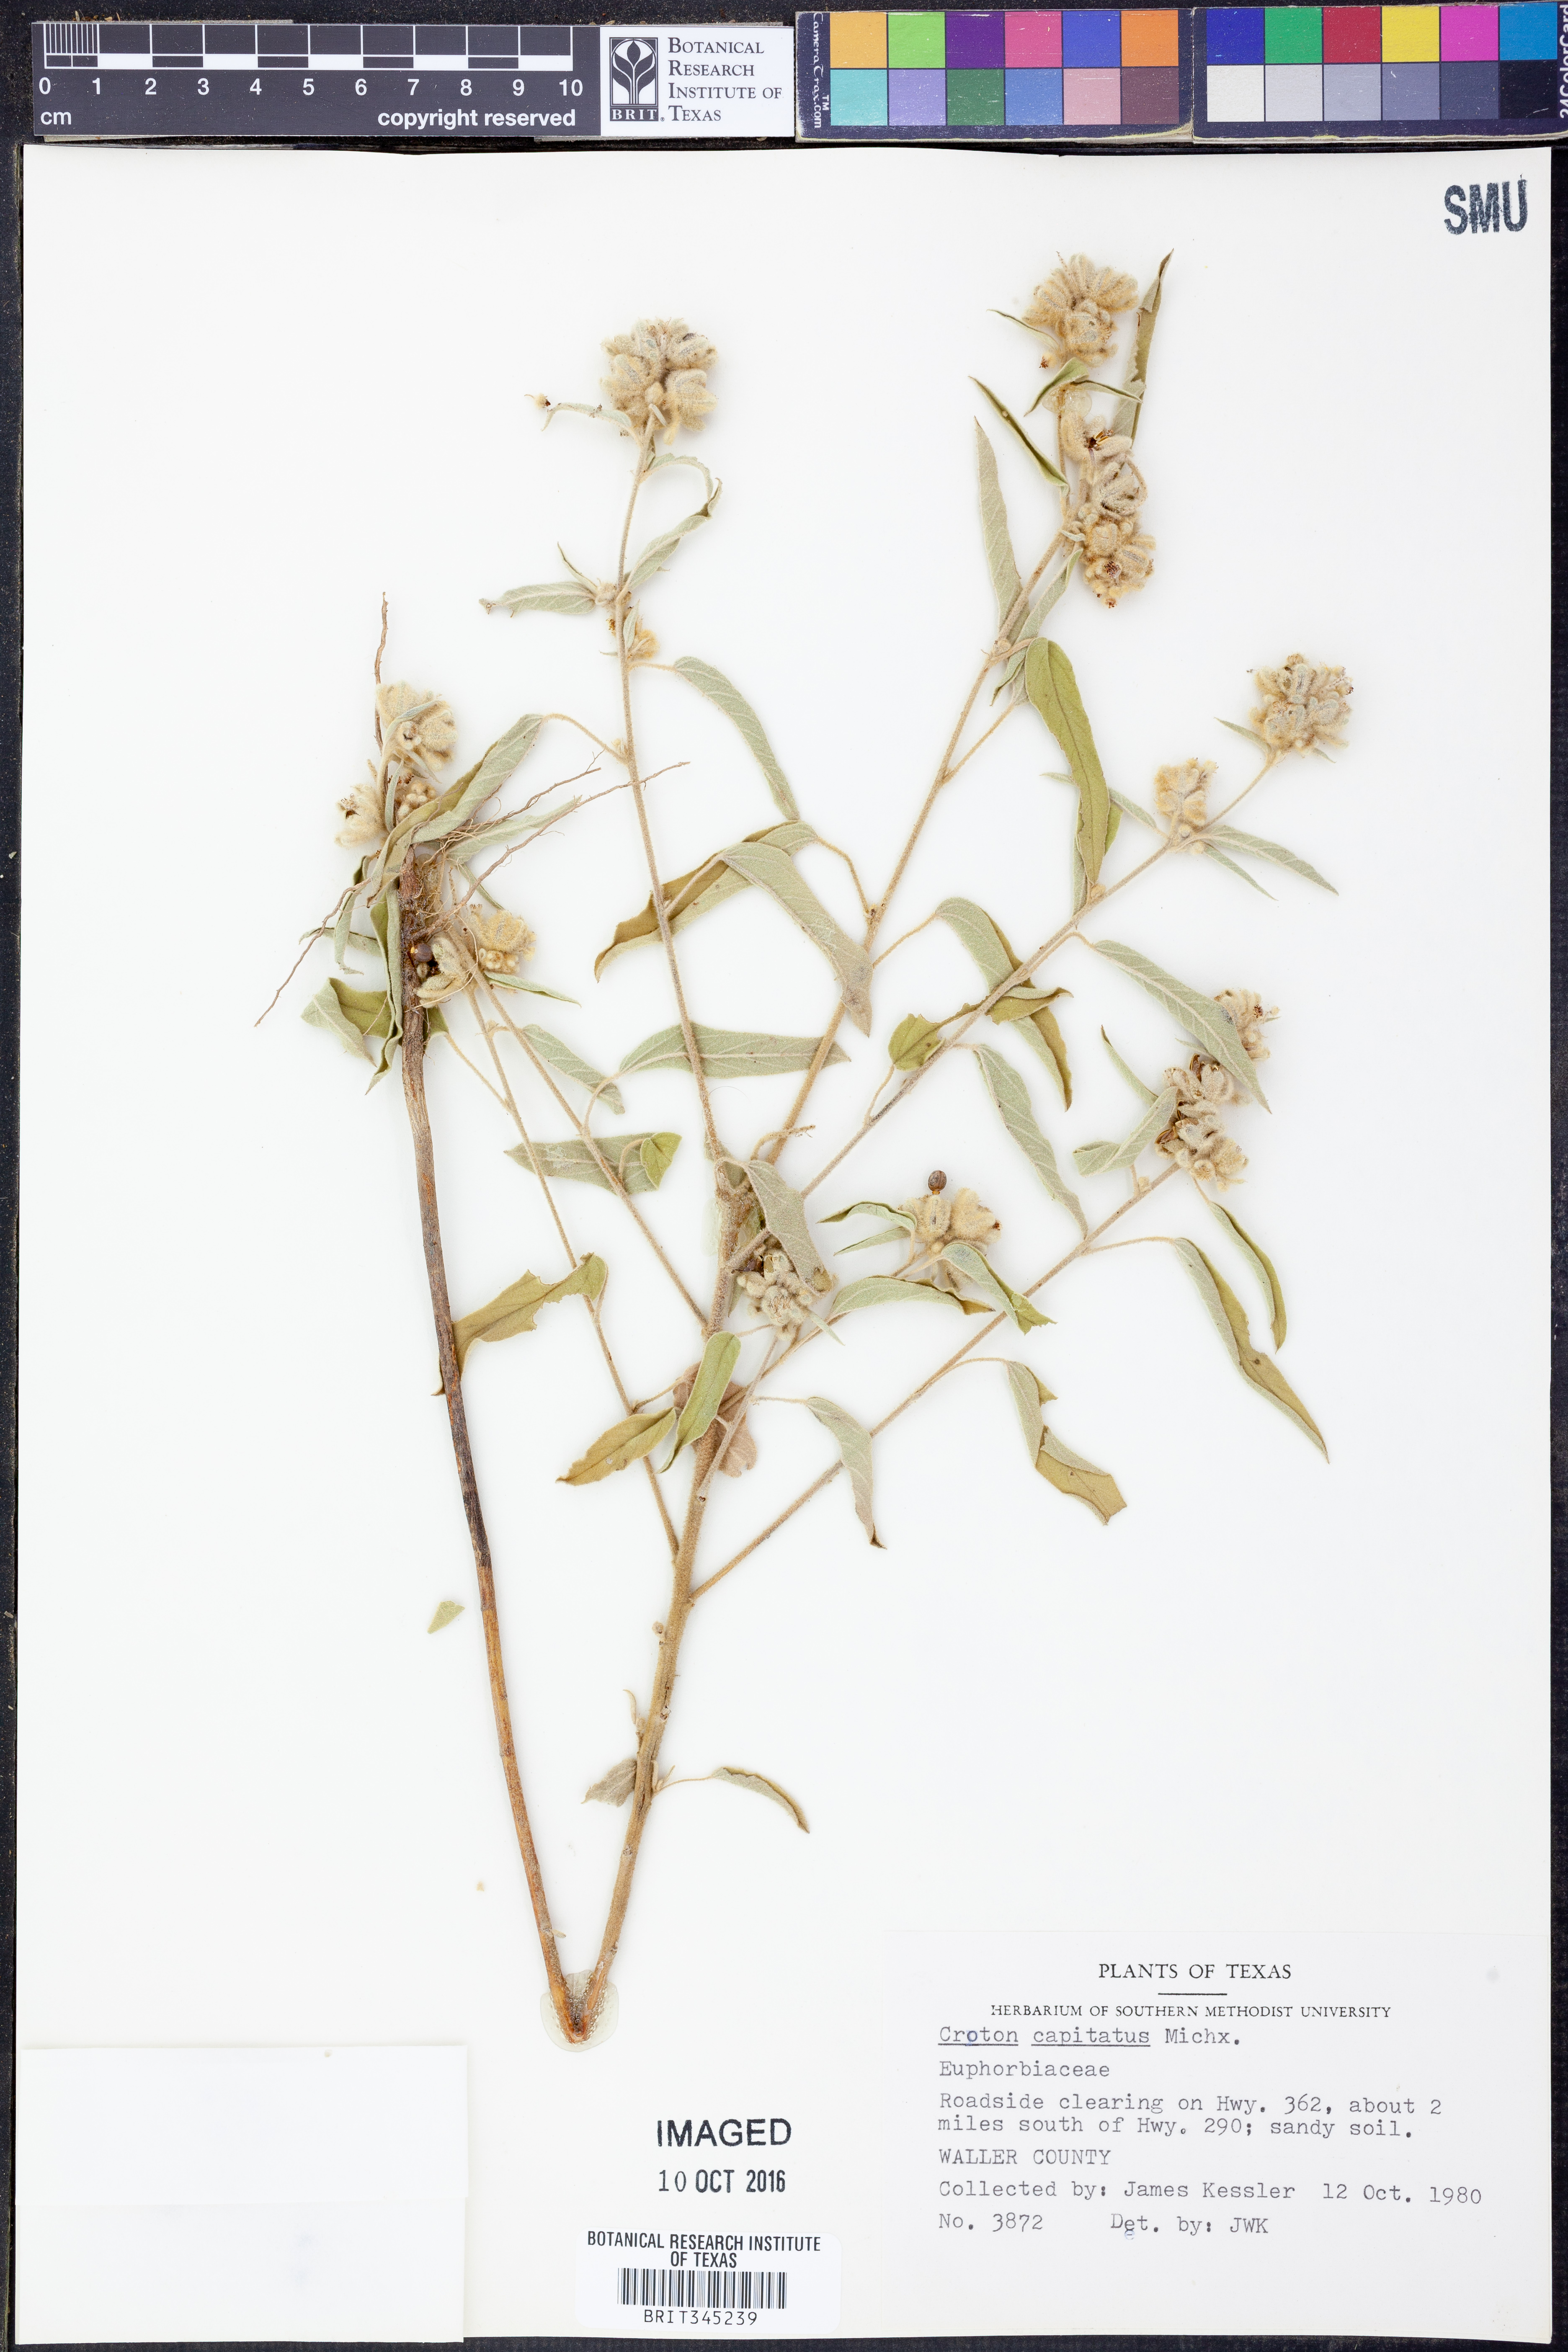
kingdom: Plantae
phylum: Tracheophyta
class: Magnoliopsida
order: Malpighiales
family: Euphorbiaceae
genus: Croton
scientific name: Croton capitatus
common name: Woolly croton
